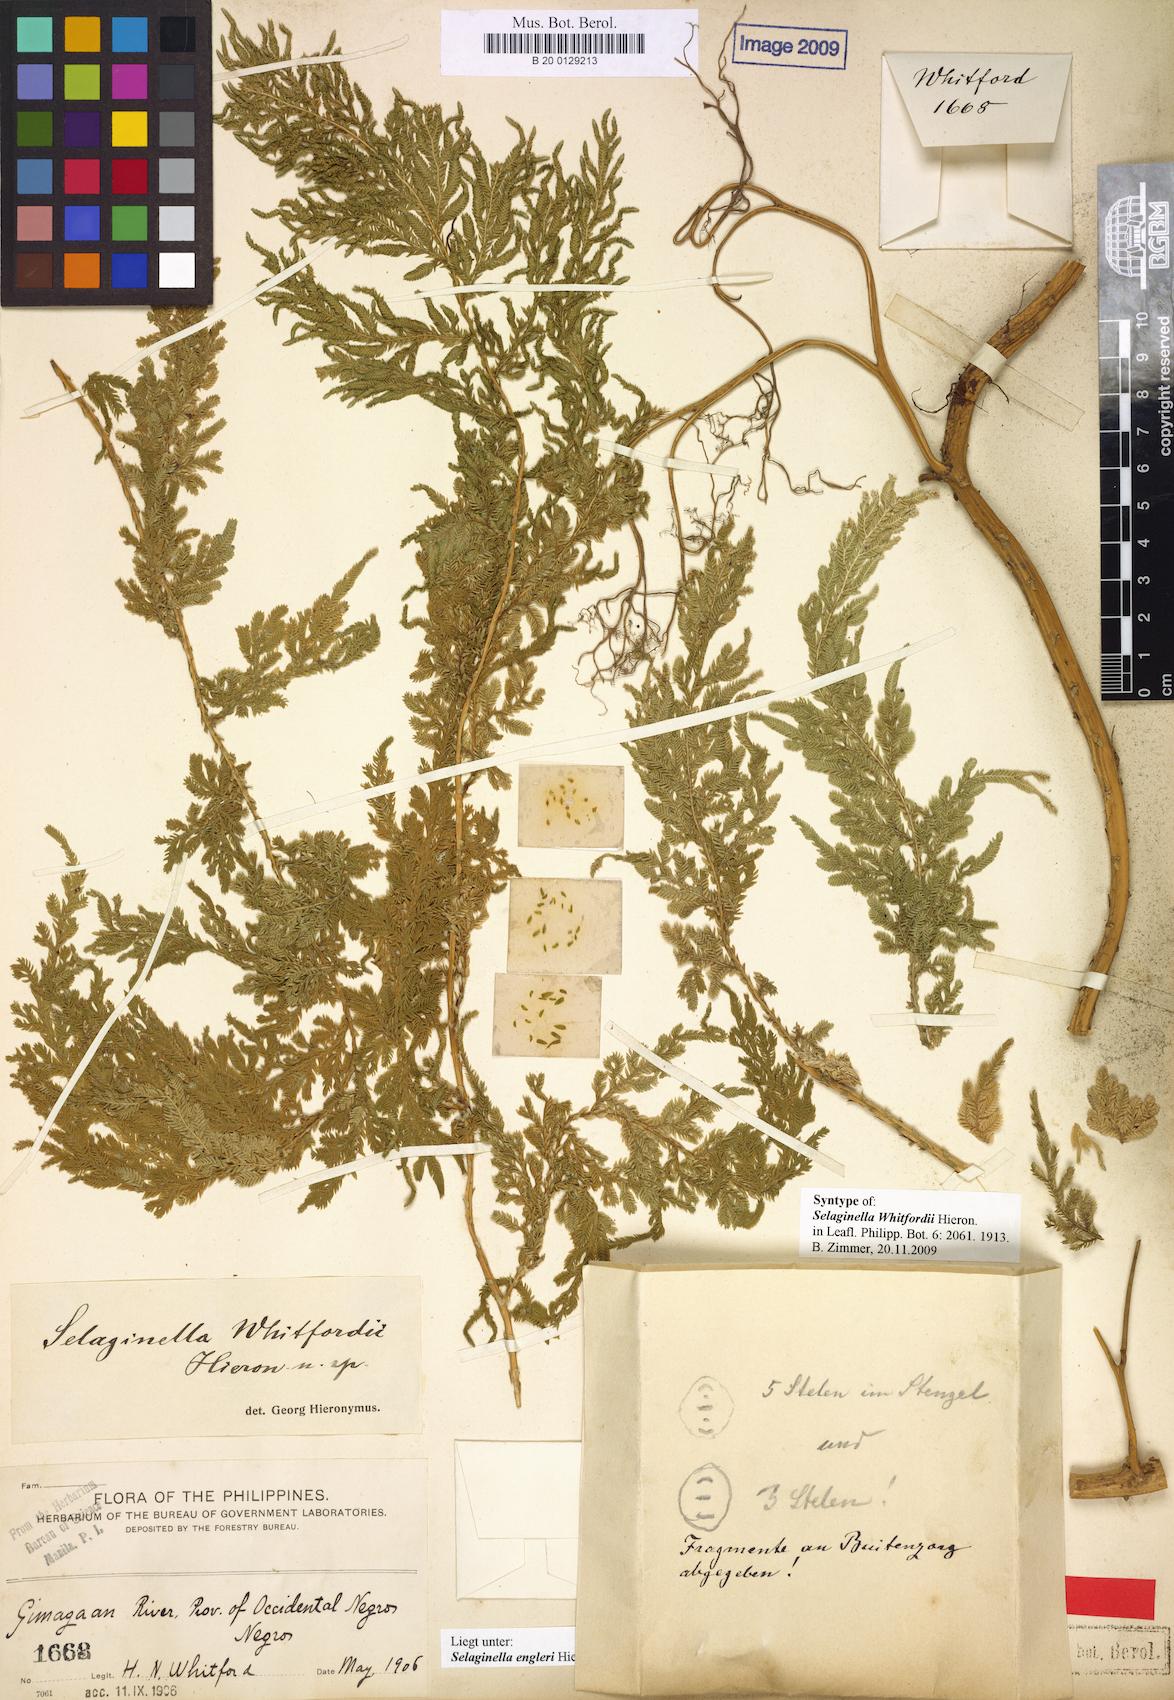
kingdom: Plantae
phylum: Tracheophyta
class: Lycopodiopsida
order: Selaginellales
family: Selaginellaceae
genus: Selaginella
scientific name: Selaginella engleri
